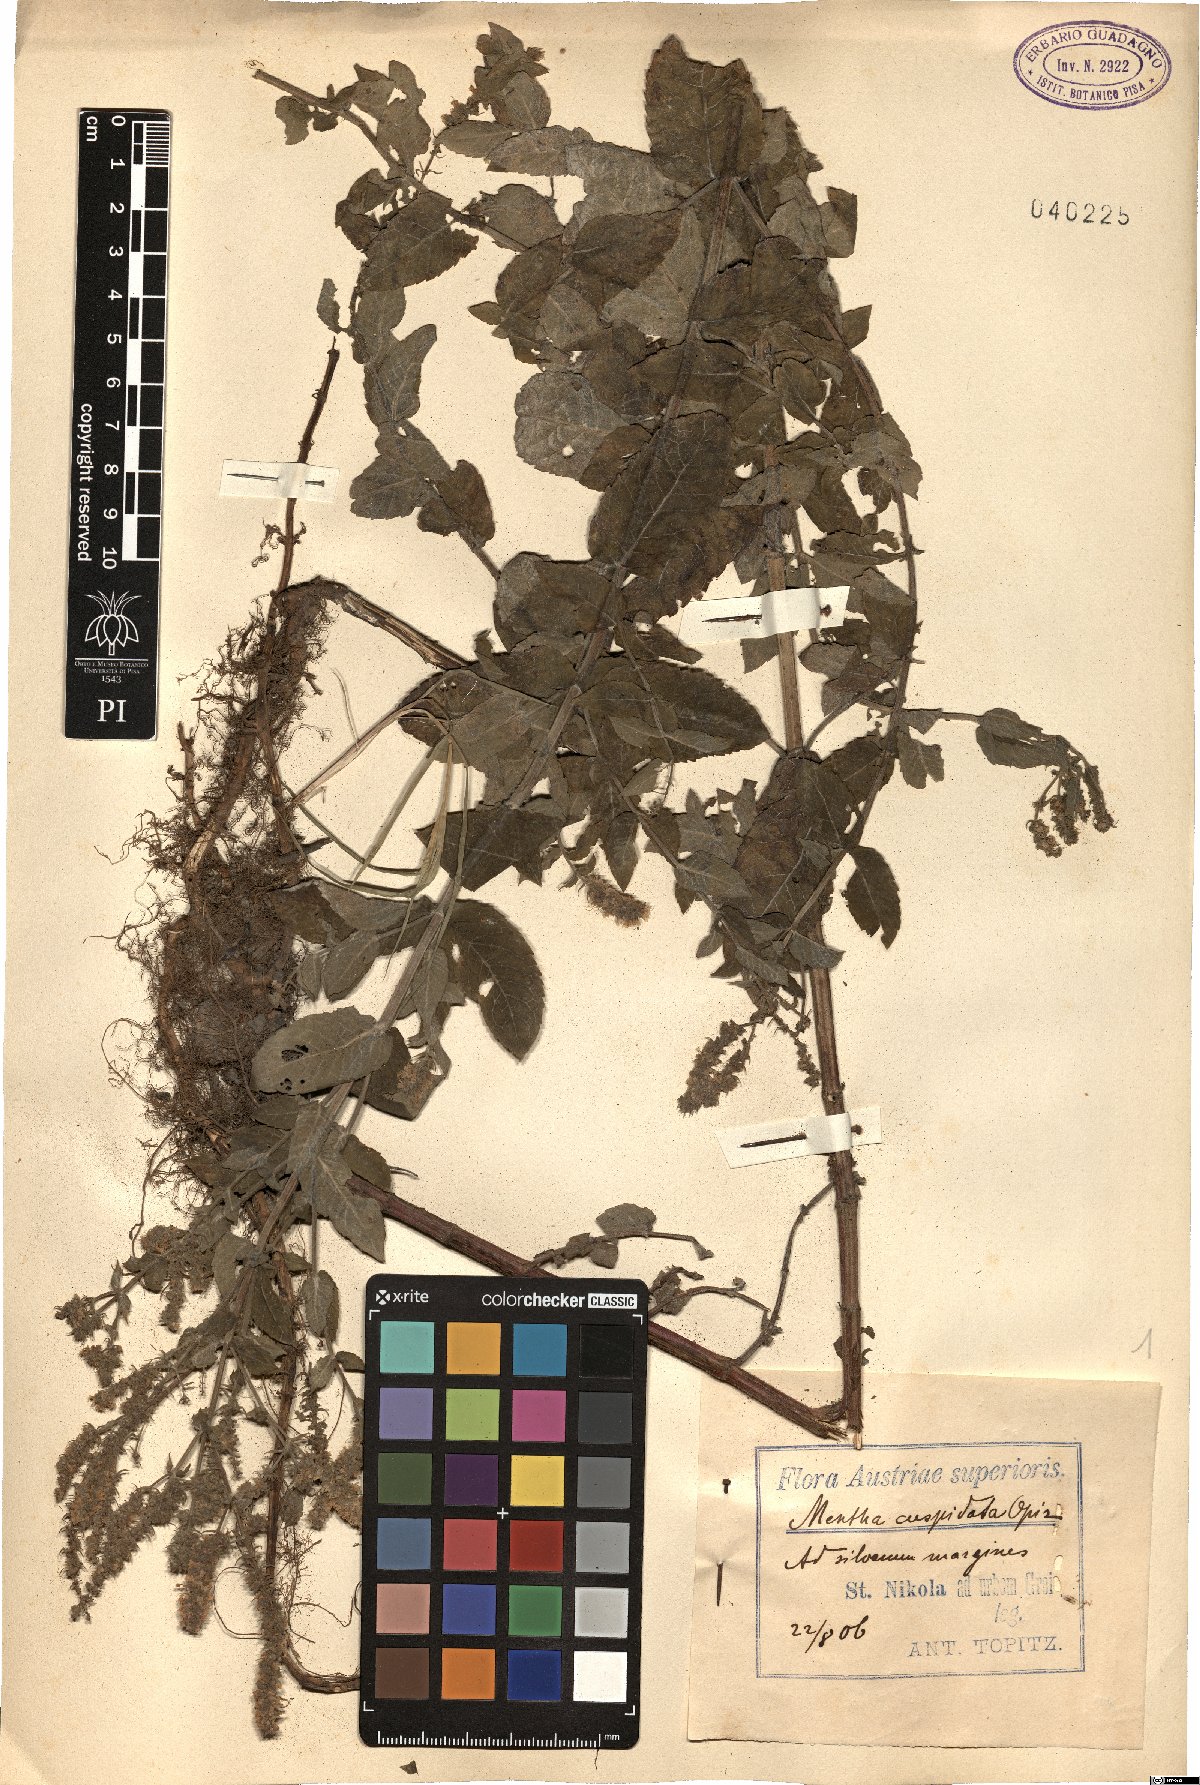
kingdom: Plantae
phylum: Tracheophyta
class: Magnoliopsida
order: Lamiales
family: Lamiaceae
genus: Mentha
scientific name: Mentha longifolia
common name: Horse mint
